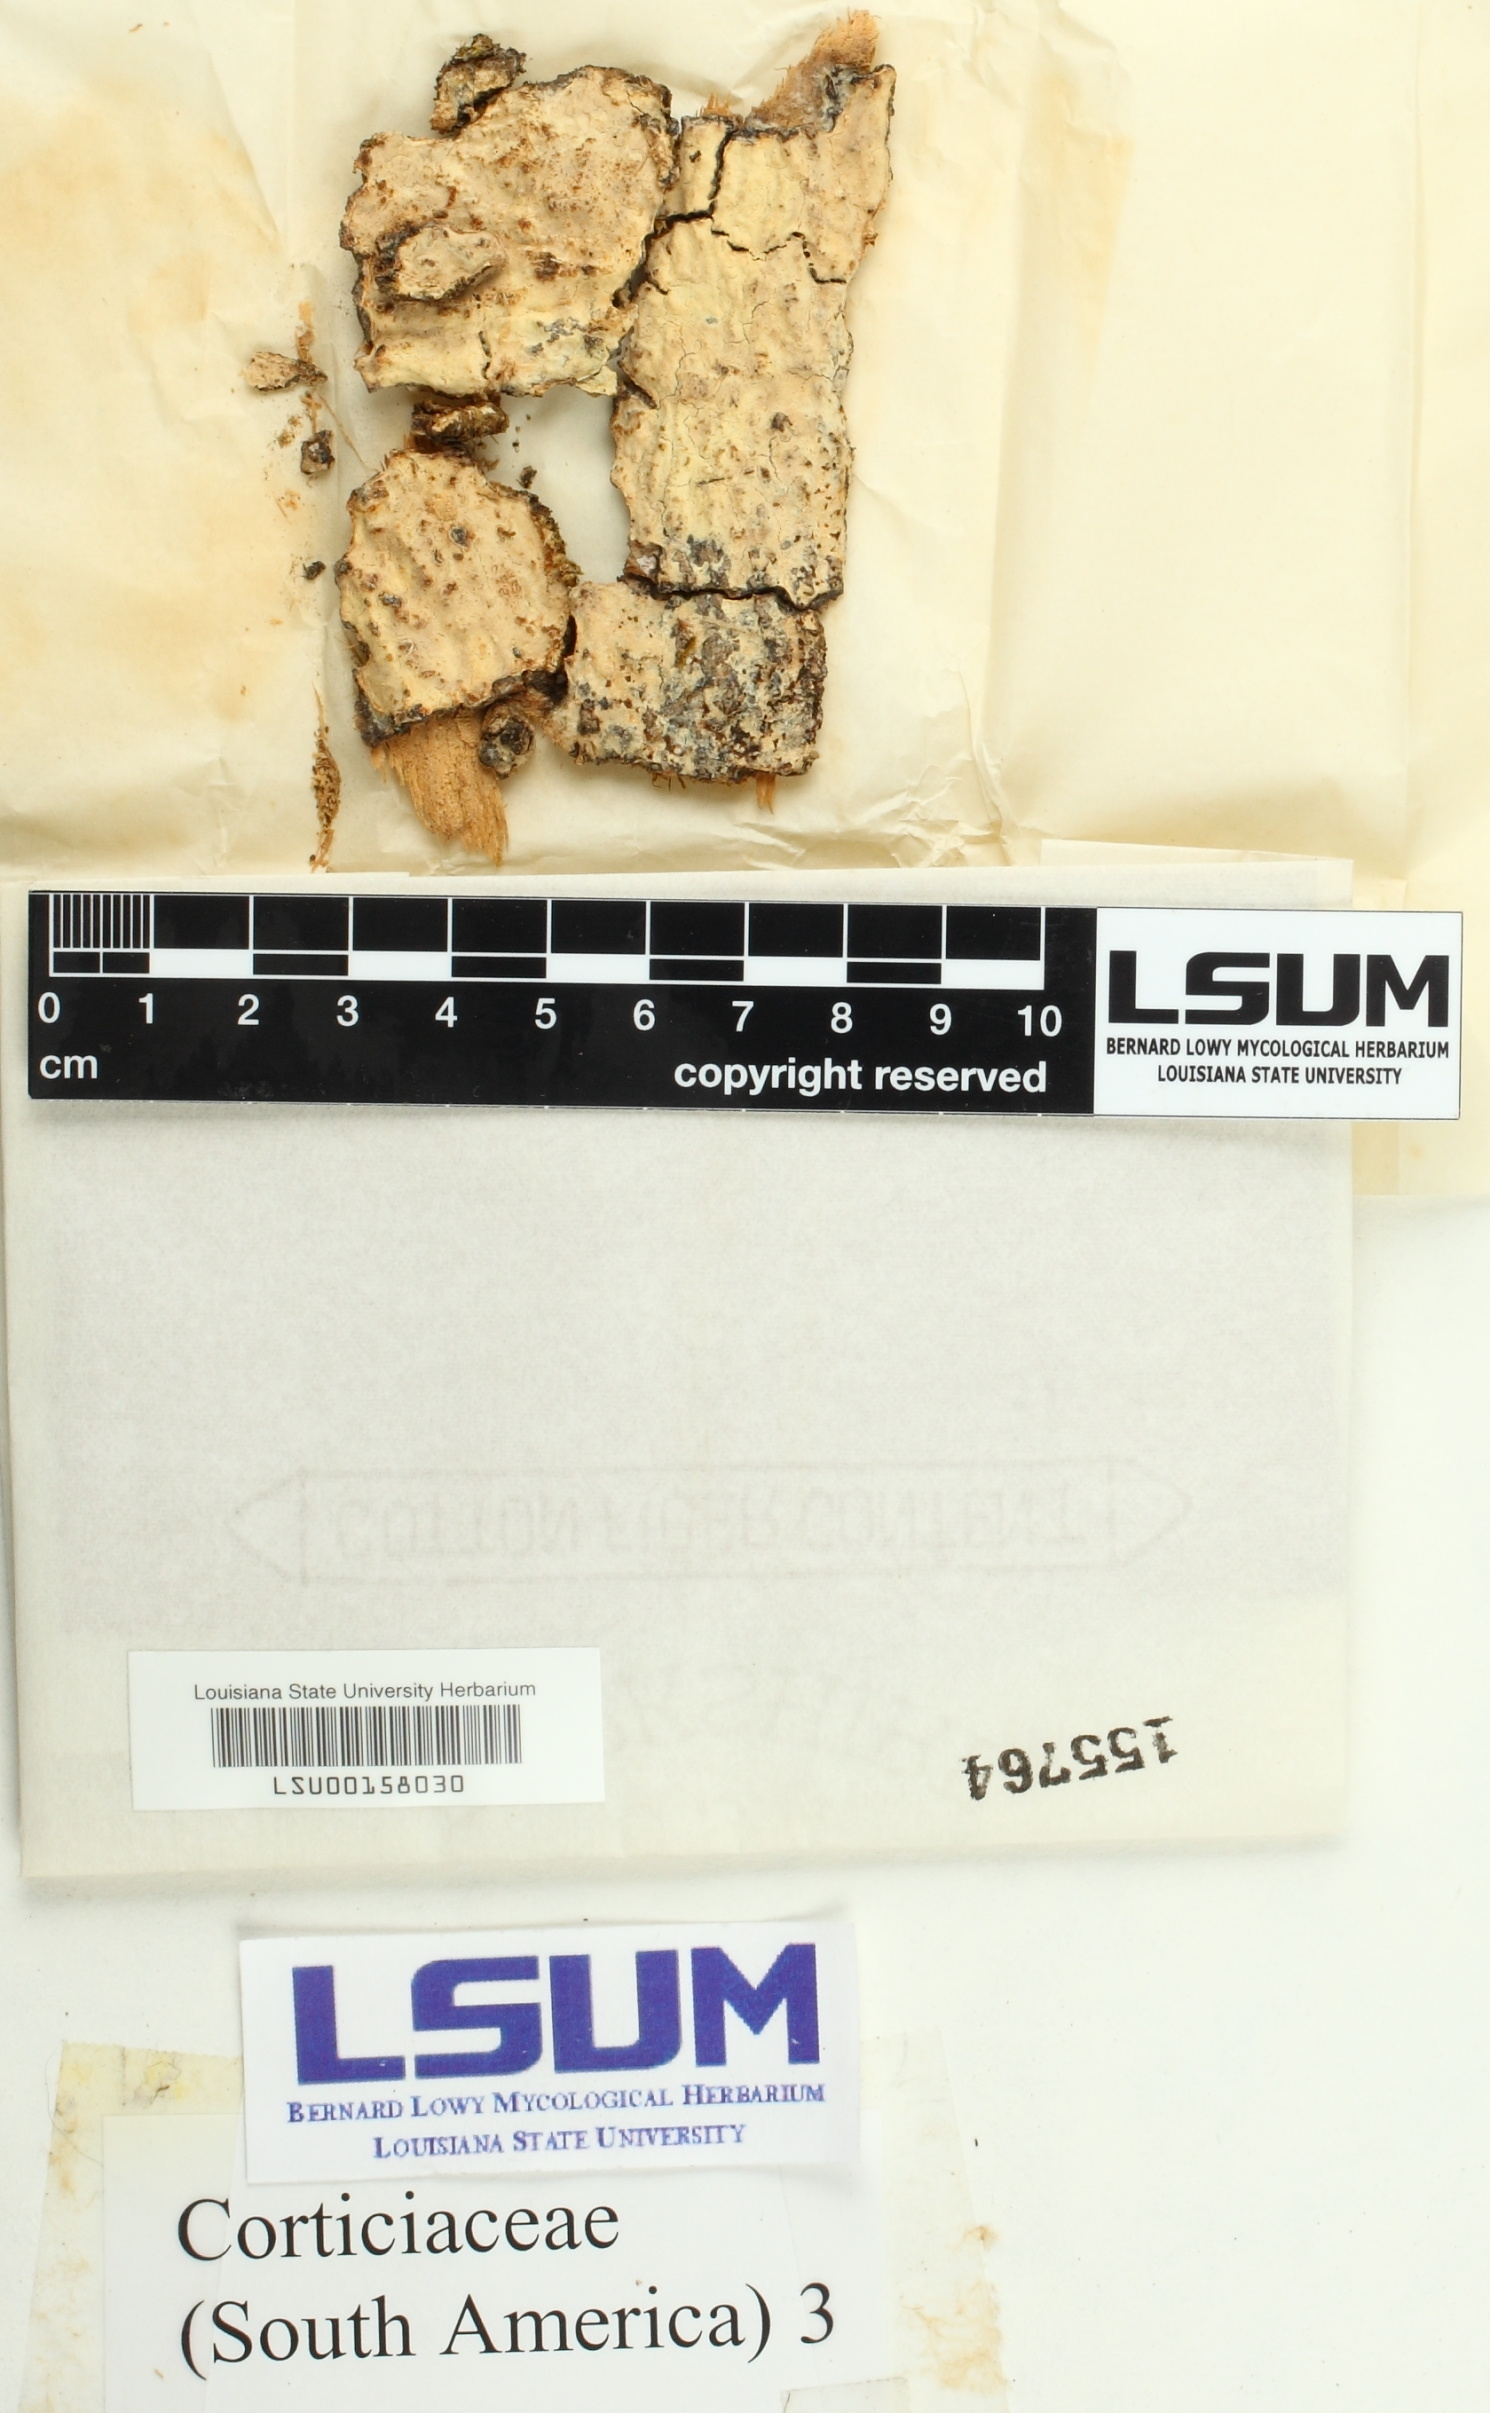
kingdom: Fungi
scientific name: Fungi
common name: Fungi
